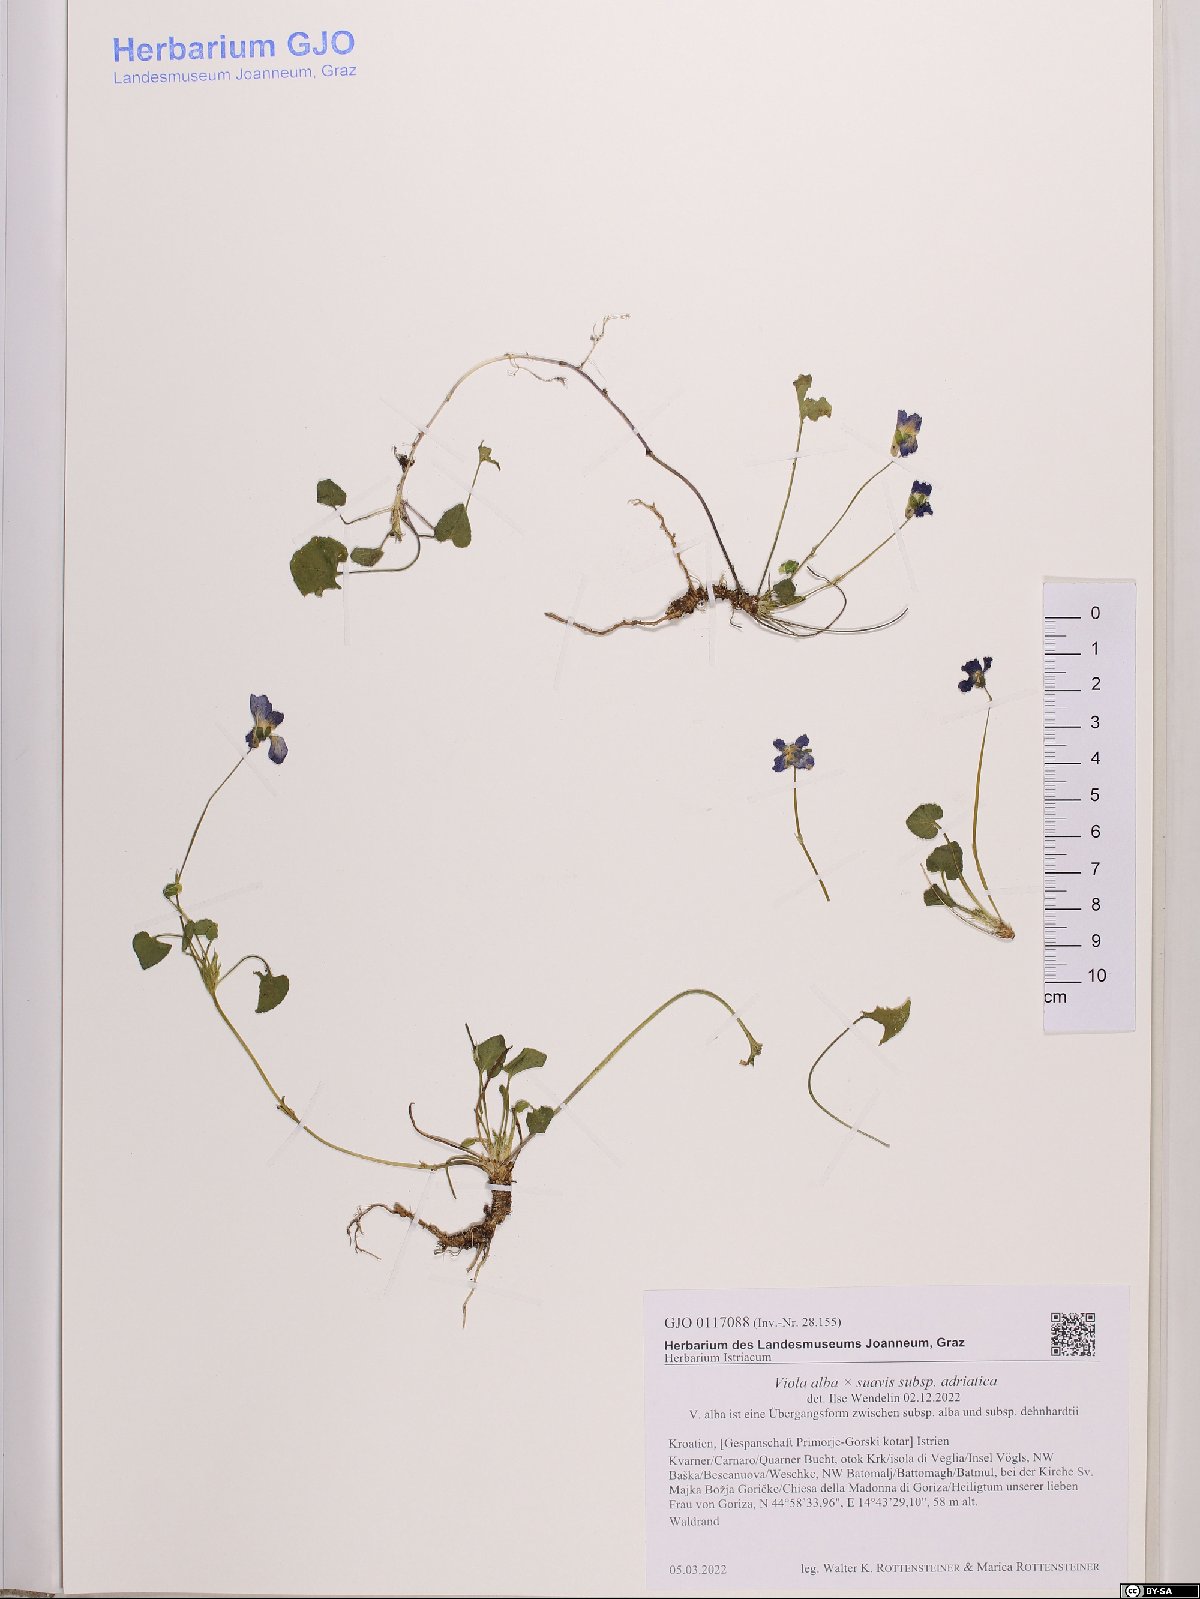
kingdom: Plantae
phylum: Tracheophyta
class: Magnoliopsida
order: Malpighiales
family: Violaceae
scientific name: Violaceae
